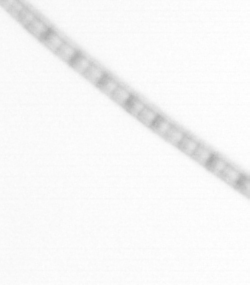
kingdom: Chromista
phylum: Ochrophyta
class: Bacillariophyceae
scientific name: Bacillariophyceae
